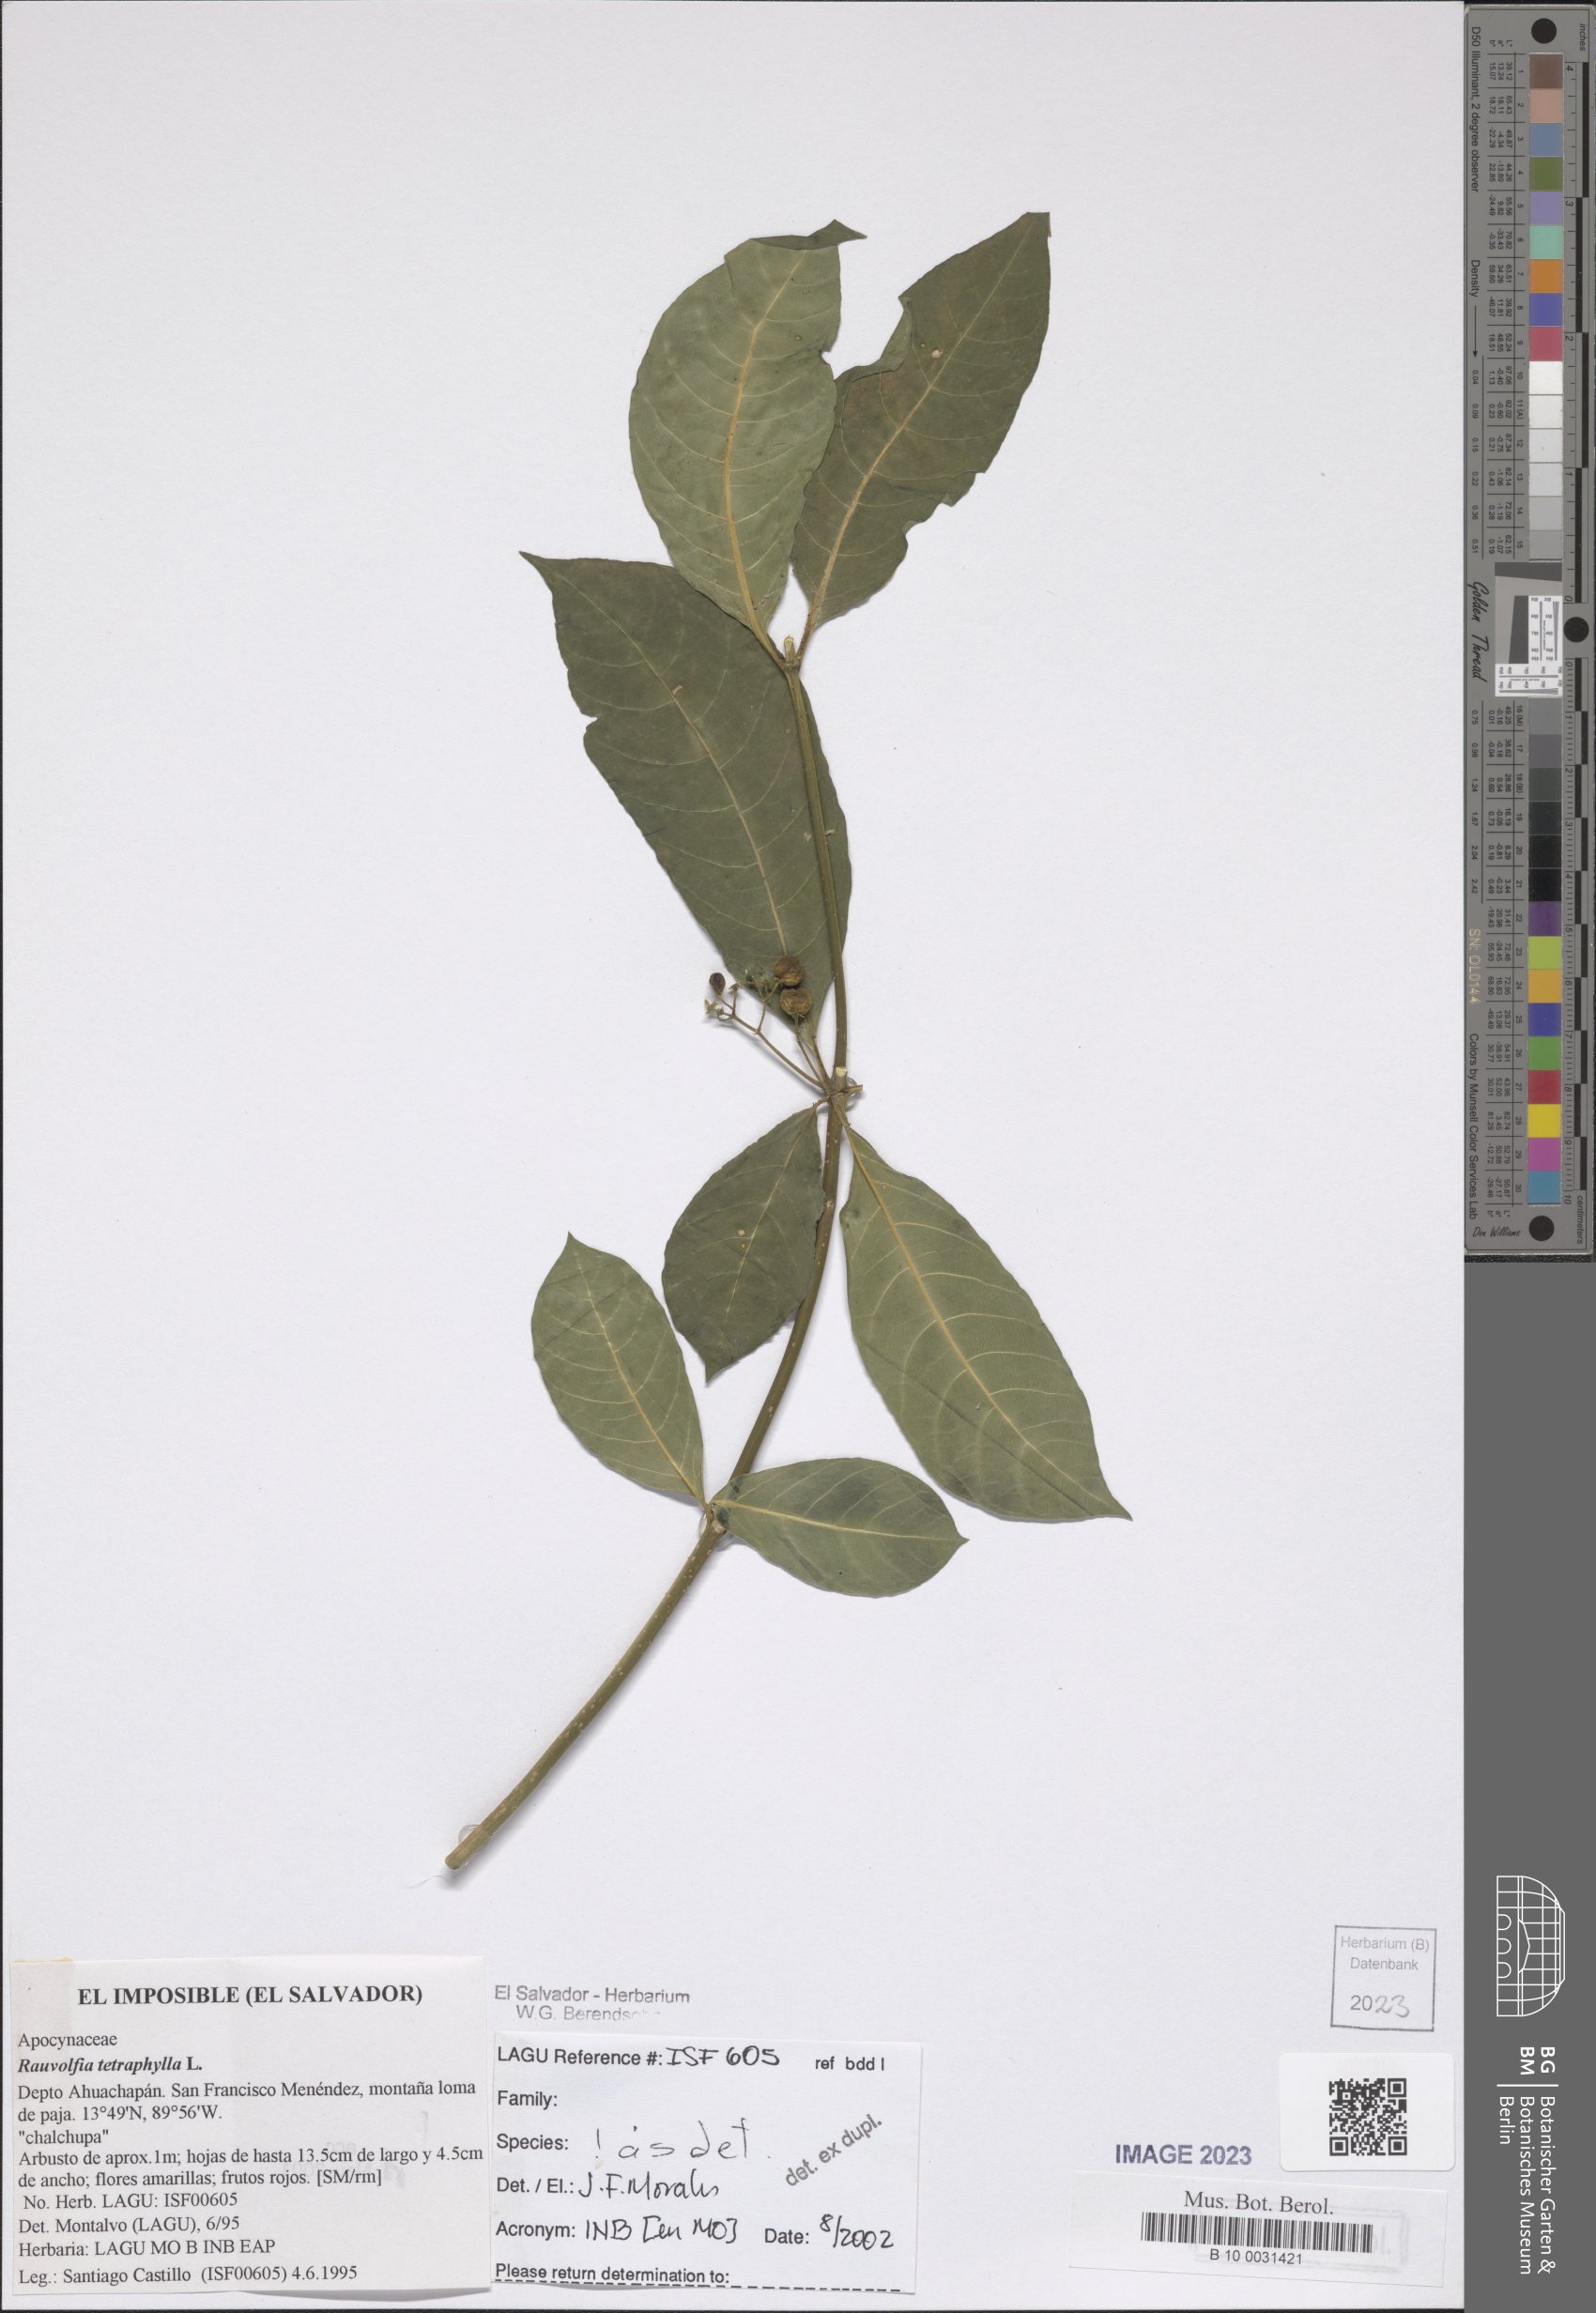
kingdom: Plantae
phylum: Tracheophyta
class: Magnoliopsida
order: Gentianales
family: Apocynaceae
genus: Rauvolfia
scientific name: Rauvolfia tetraphylla
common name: Four-leaf devil-pepper
